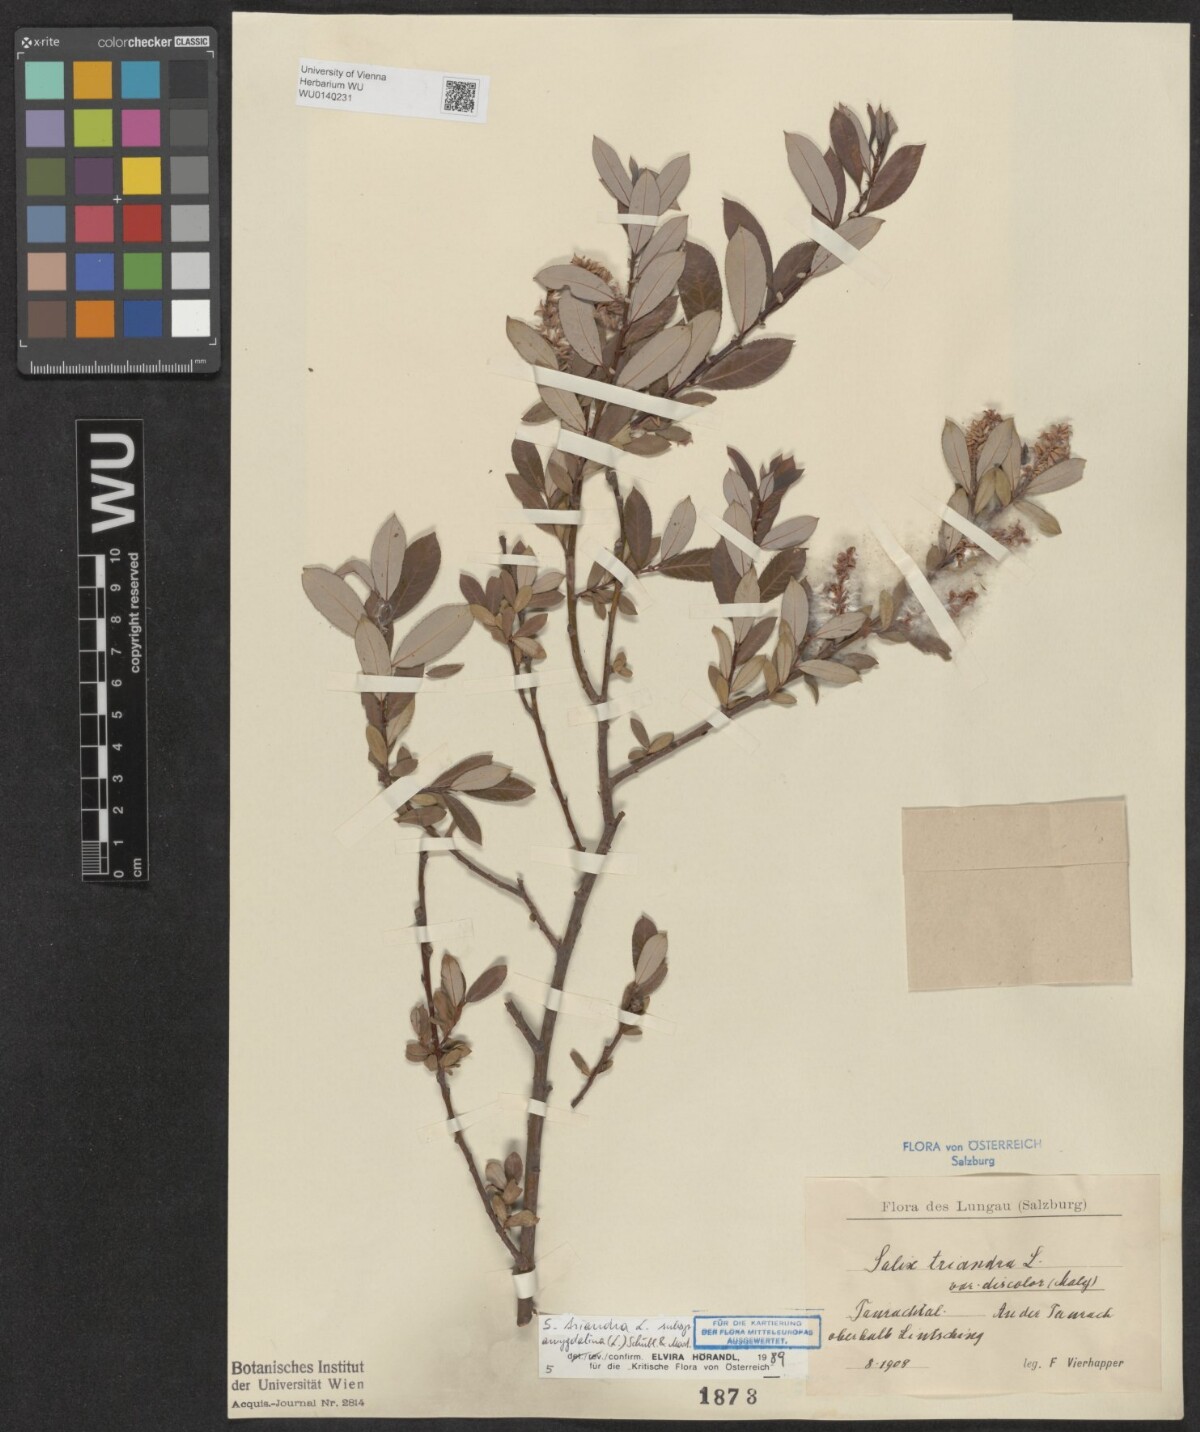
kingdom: Plantae
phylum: Tracheophyta
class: Magnoliopsida
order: Malpighiales
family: Salicaceae
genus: Salix
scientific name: Salix triandra
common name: Almond willow
